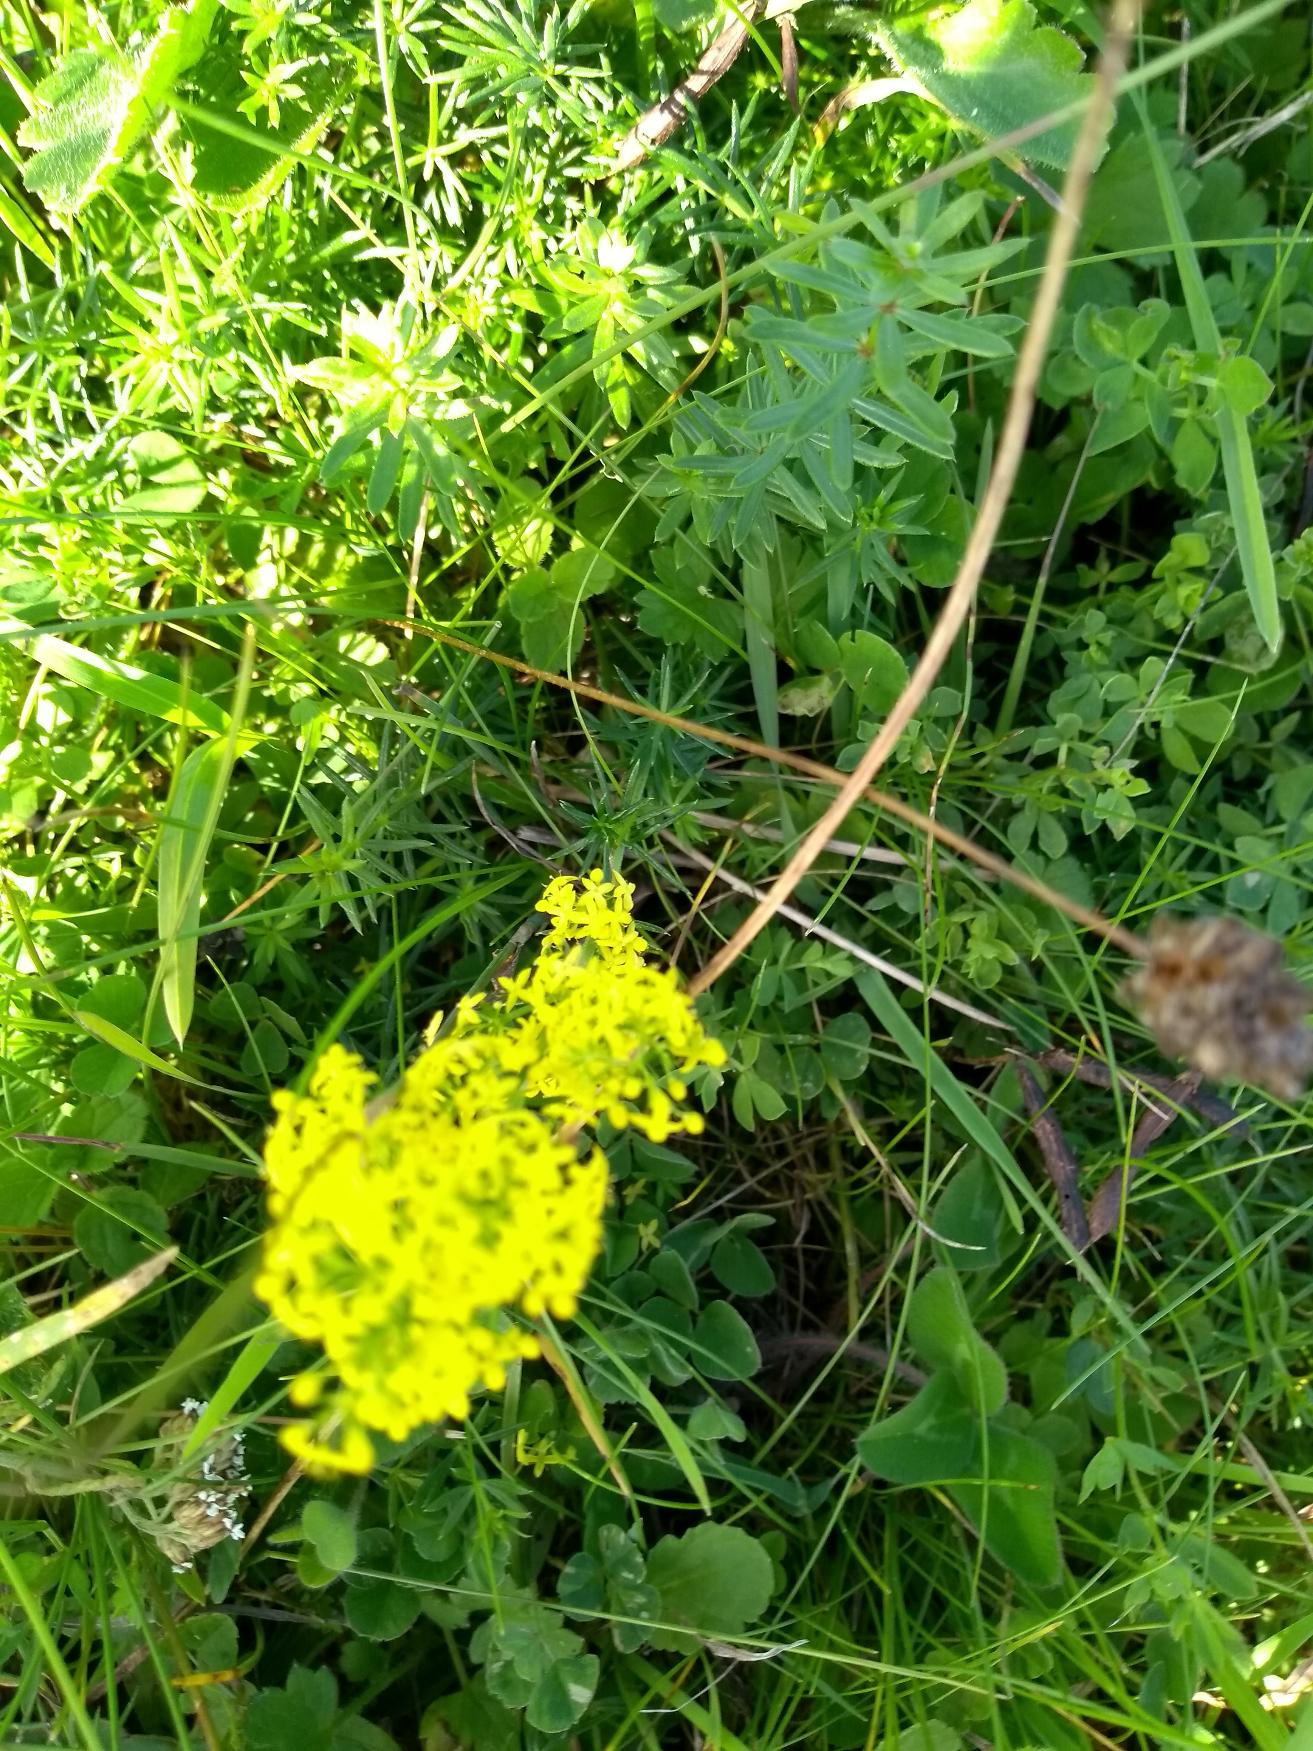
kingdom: Plantae
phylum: Tracheophyta
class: Magnoliopsida
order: Gentianales
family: Rubiaceae
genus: Galium
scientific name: Galium verum
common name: Gul snerre
